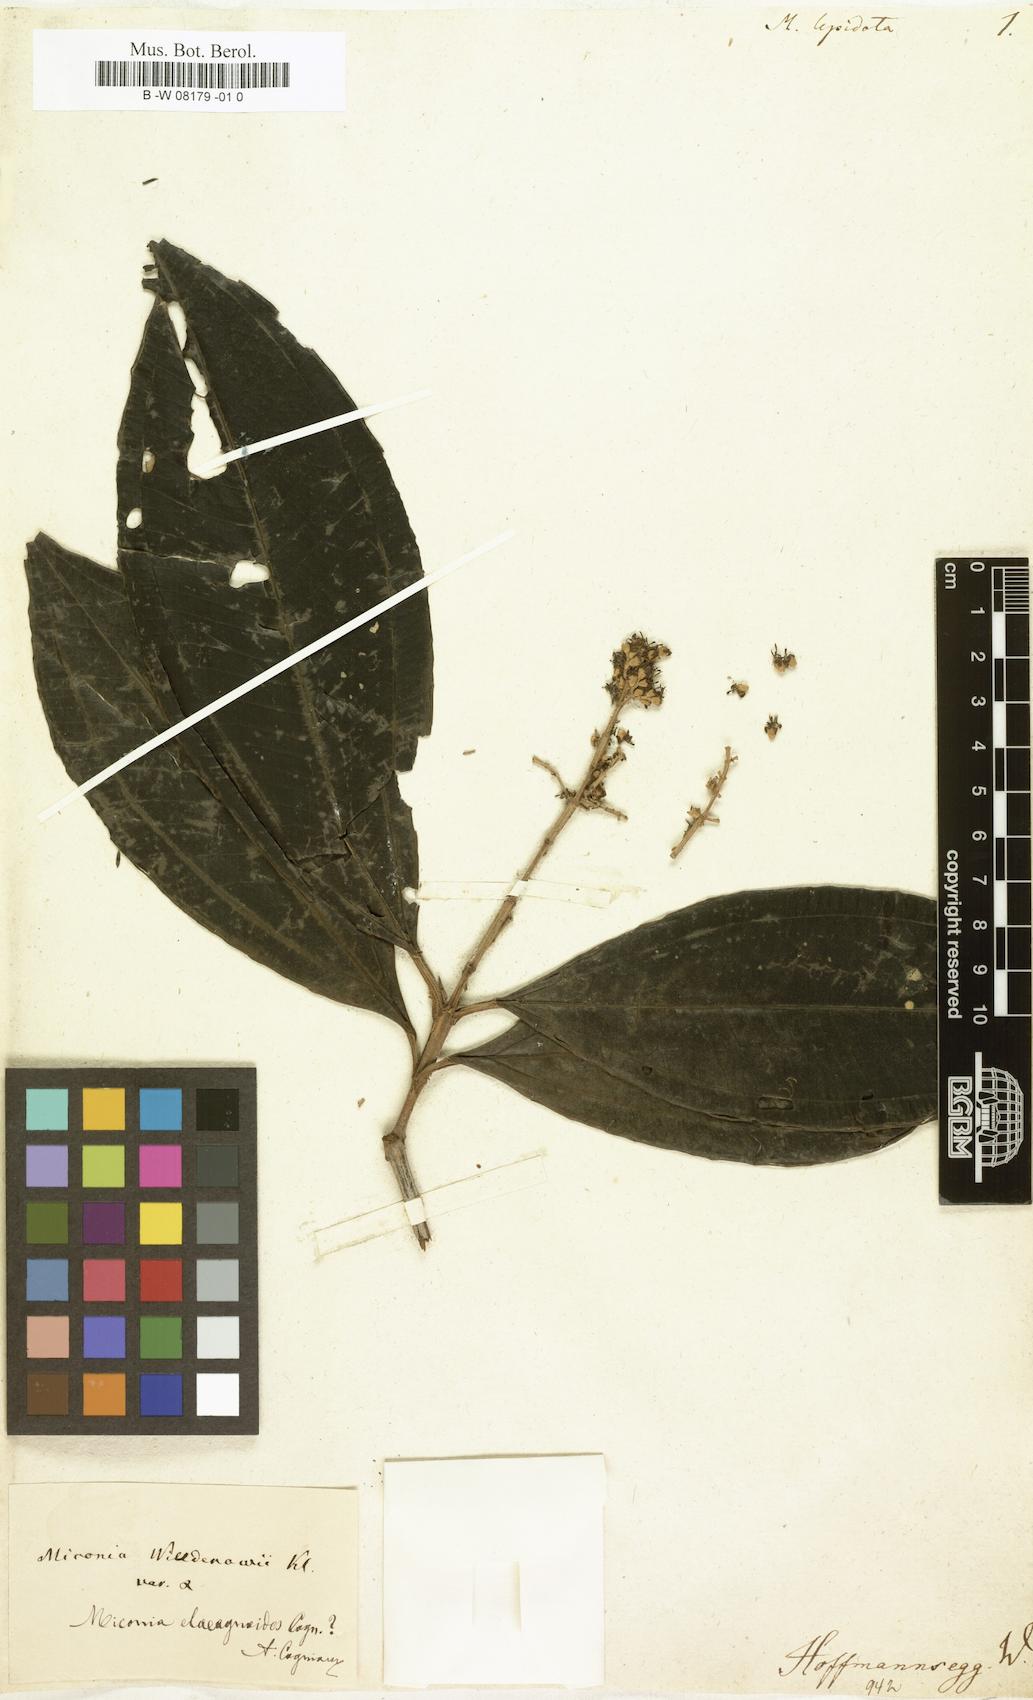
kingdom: Plantae
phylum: Tracheophyta
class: Magnoliopsida
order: Myrtales
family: Melastomataceae
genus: Miconia
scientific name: Miconia lepidota
